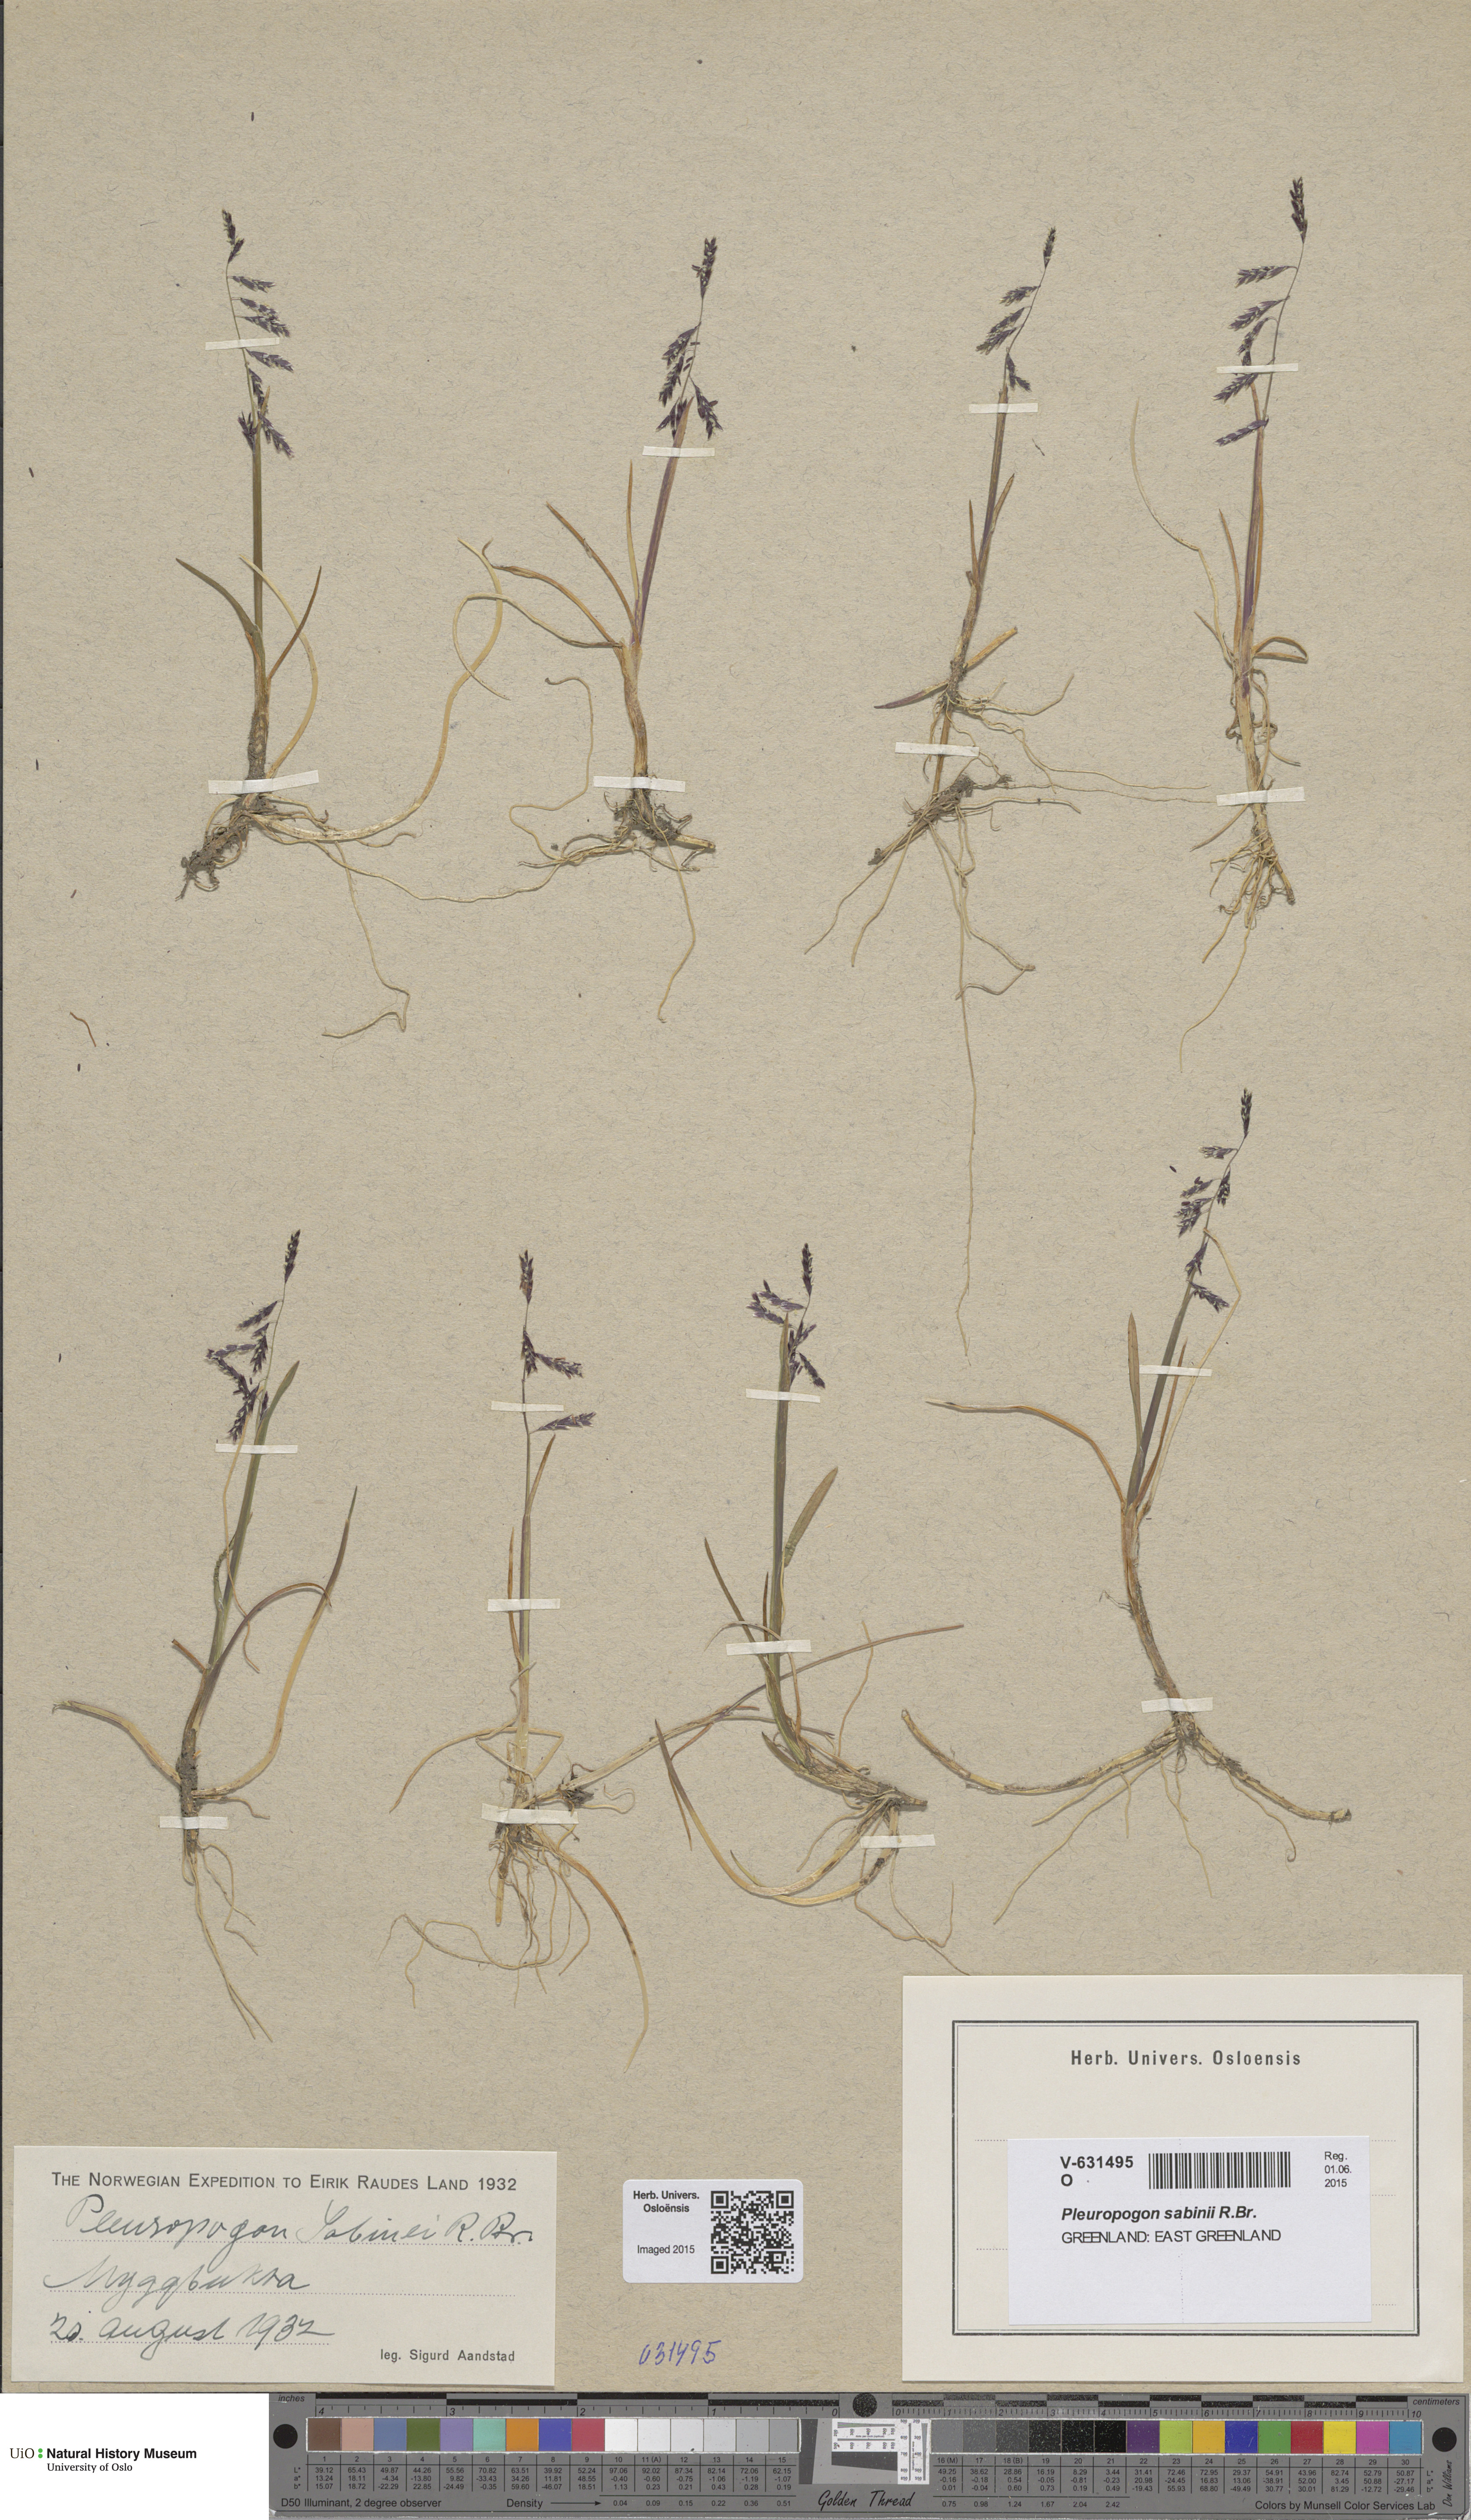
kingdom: Plantae
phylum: Tracheophyta
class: Liliopsida
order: Poales
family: Poaceae
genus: Pleuropogon
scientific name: Pleuropogon sabinei
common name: Sabine's false semaphoregrass
